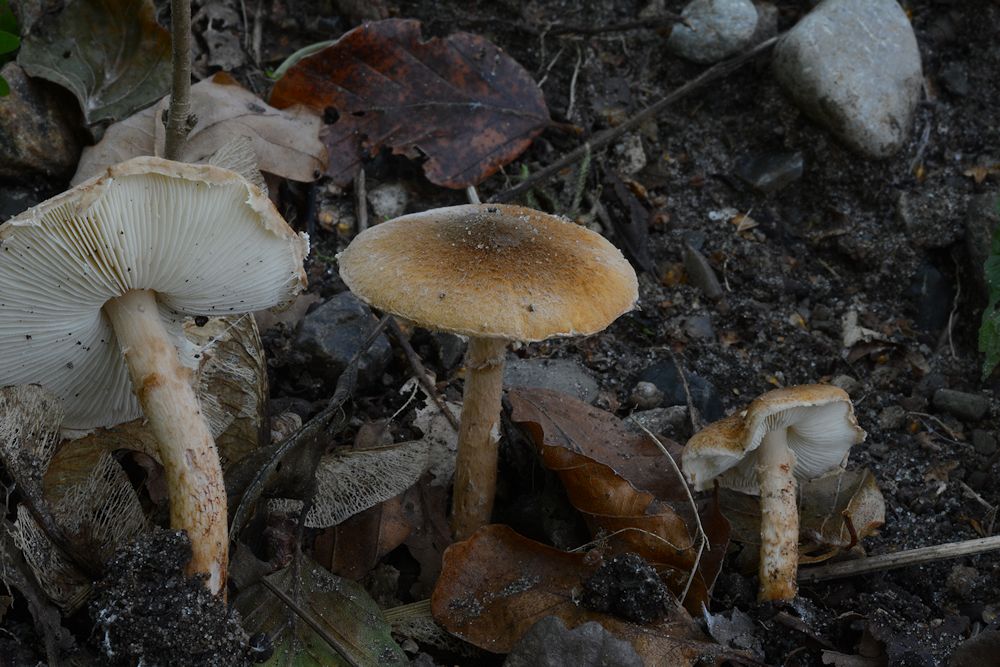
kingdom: Fungi
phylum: Basidiomycota
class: Agaricomycetes
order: Agaricales
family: Agaricaceae
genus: Leucocoprinus
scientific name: Leucocoprinus straminellus
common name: rustbrun parasolhat
